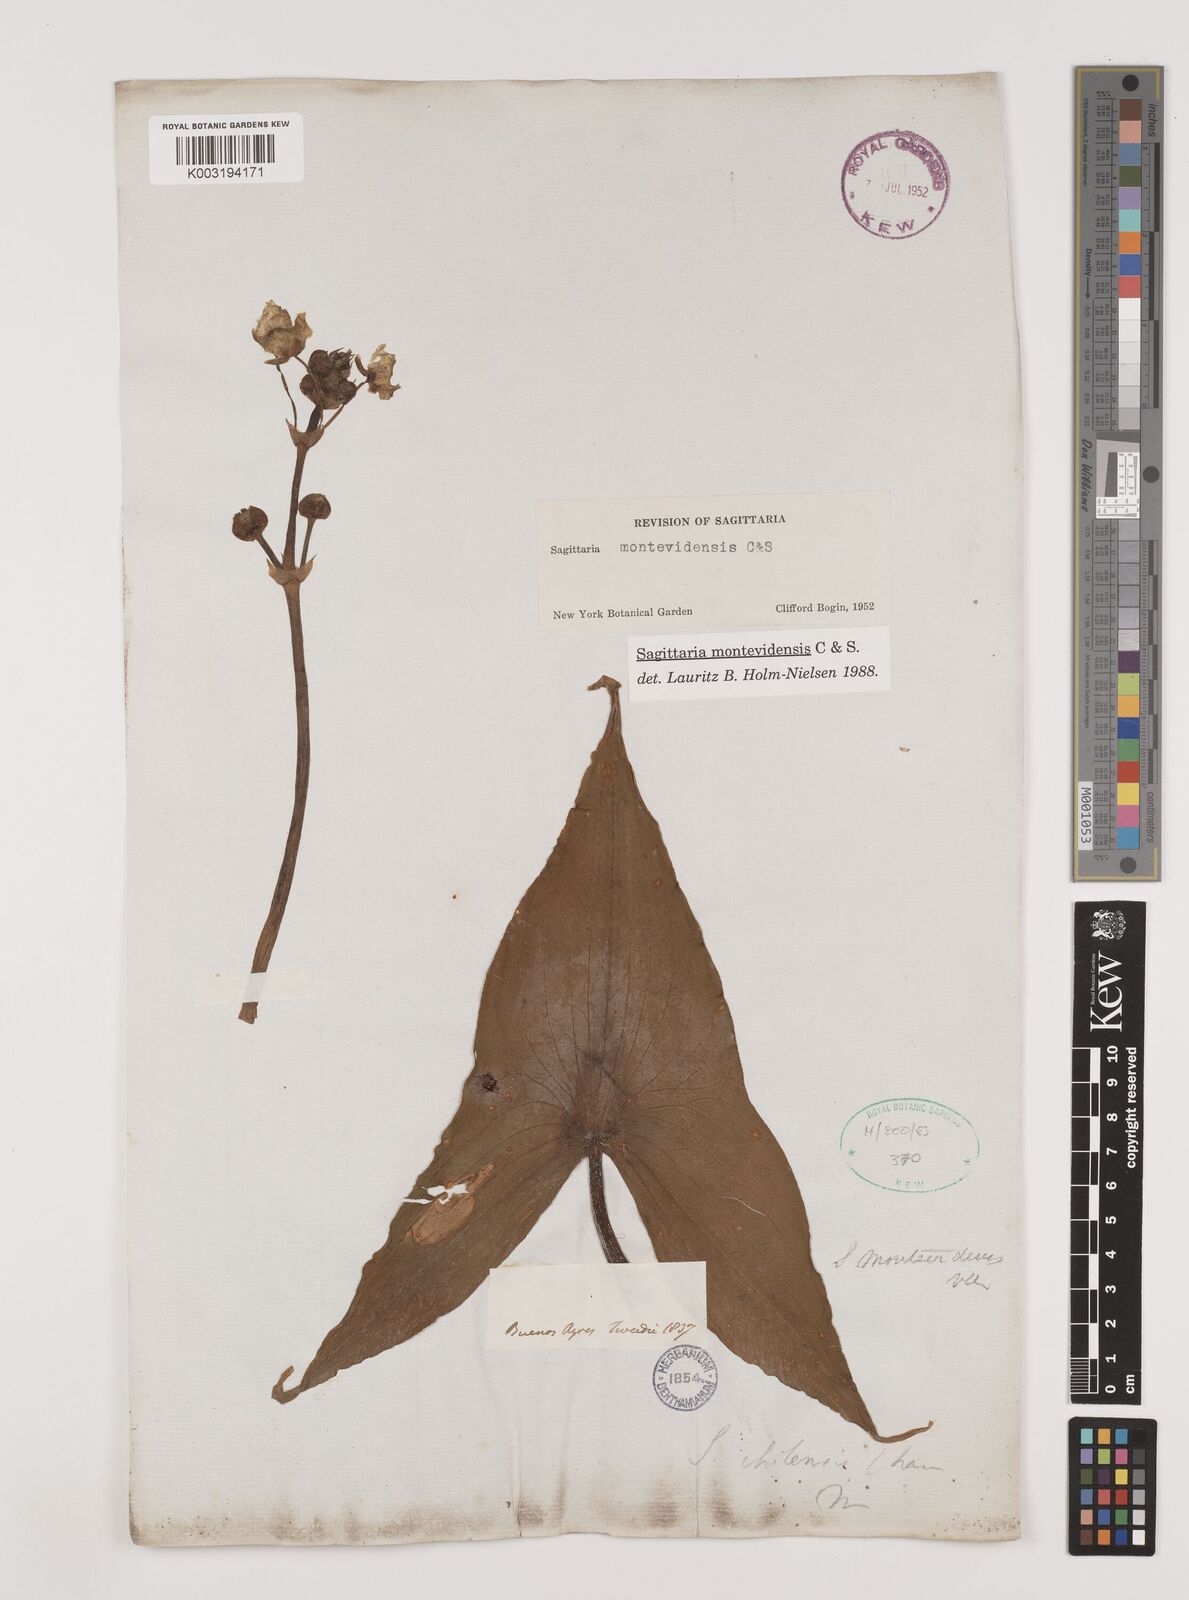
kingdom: Plantae
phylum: Tracheophyta
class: Liliopsida
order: Alismatales
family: Alismataceae
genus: Sagittaria
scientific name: Sagittaria montevidensis
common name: Giant arrowhead
